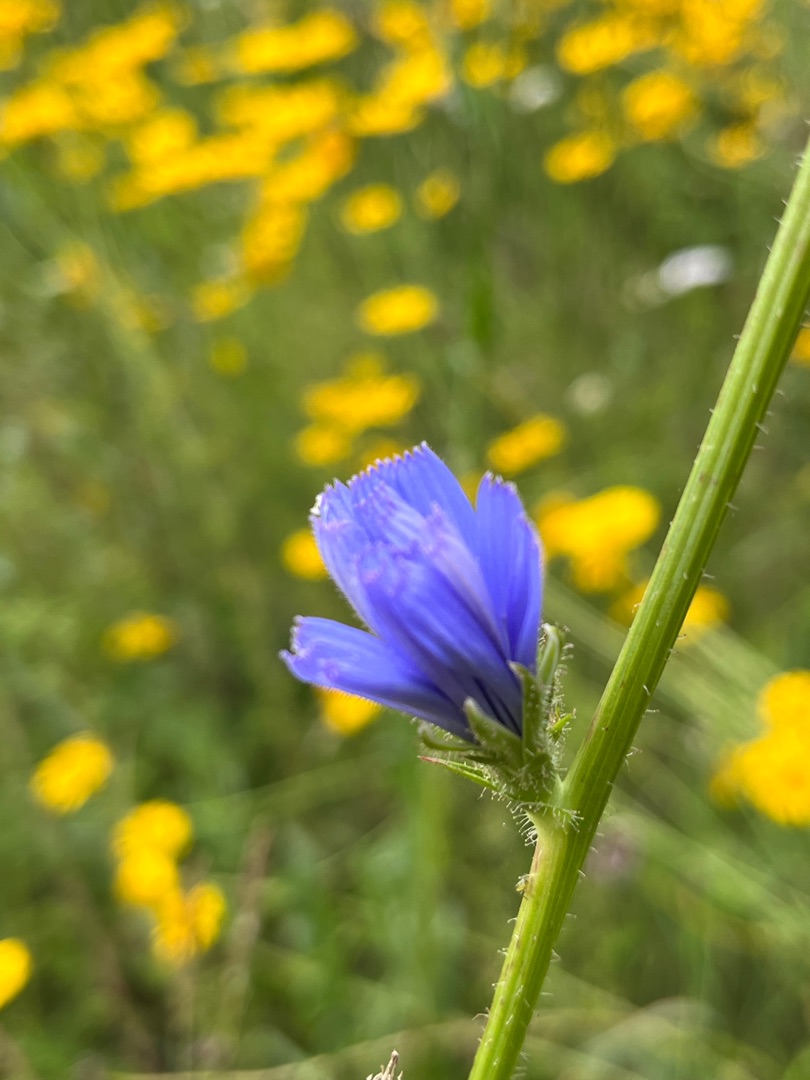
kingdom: Plantae
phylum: Tracheophyta
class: Magnoliopsida
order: Asterales
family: Asteraceae
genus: Cichorium
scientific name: Cichorium intybus
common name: Cikorie
